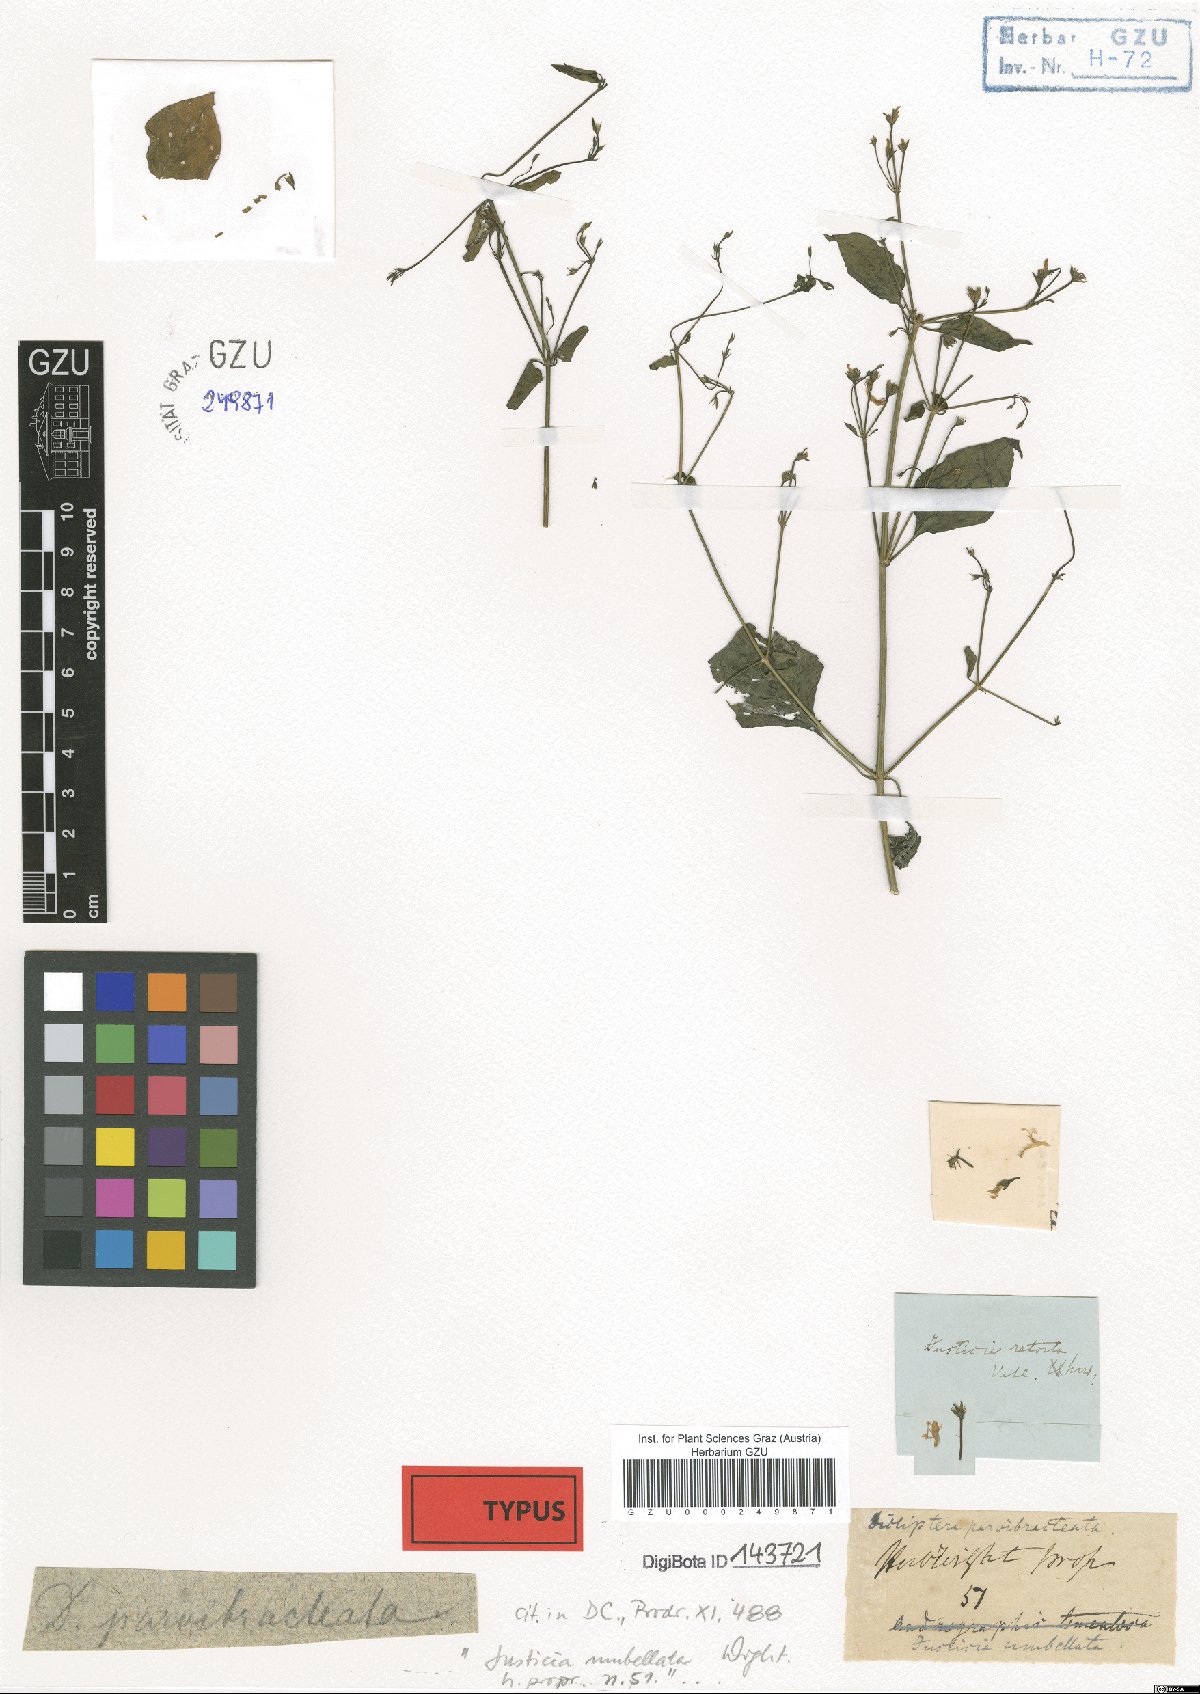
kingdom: Plantae
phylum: Tracheophyta
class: Magnoliopsida
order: Lamiales
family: Acanthaceae
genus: Dicliptera
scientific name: Dicliptera parvibracteata
